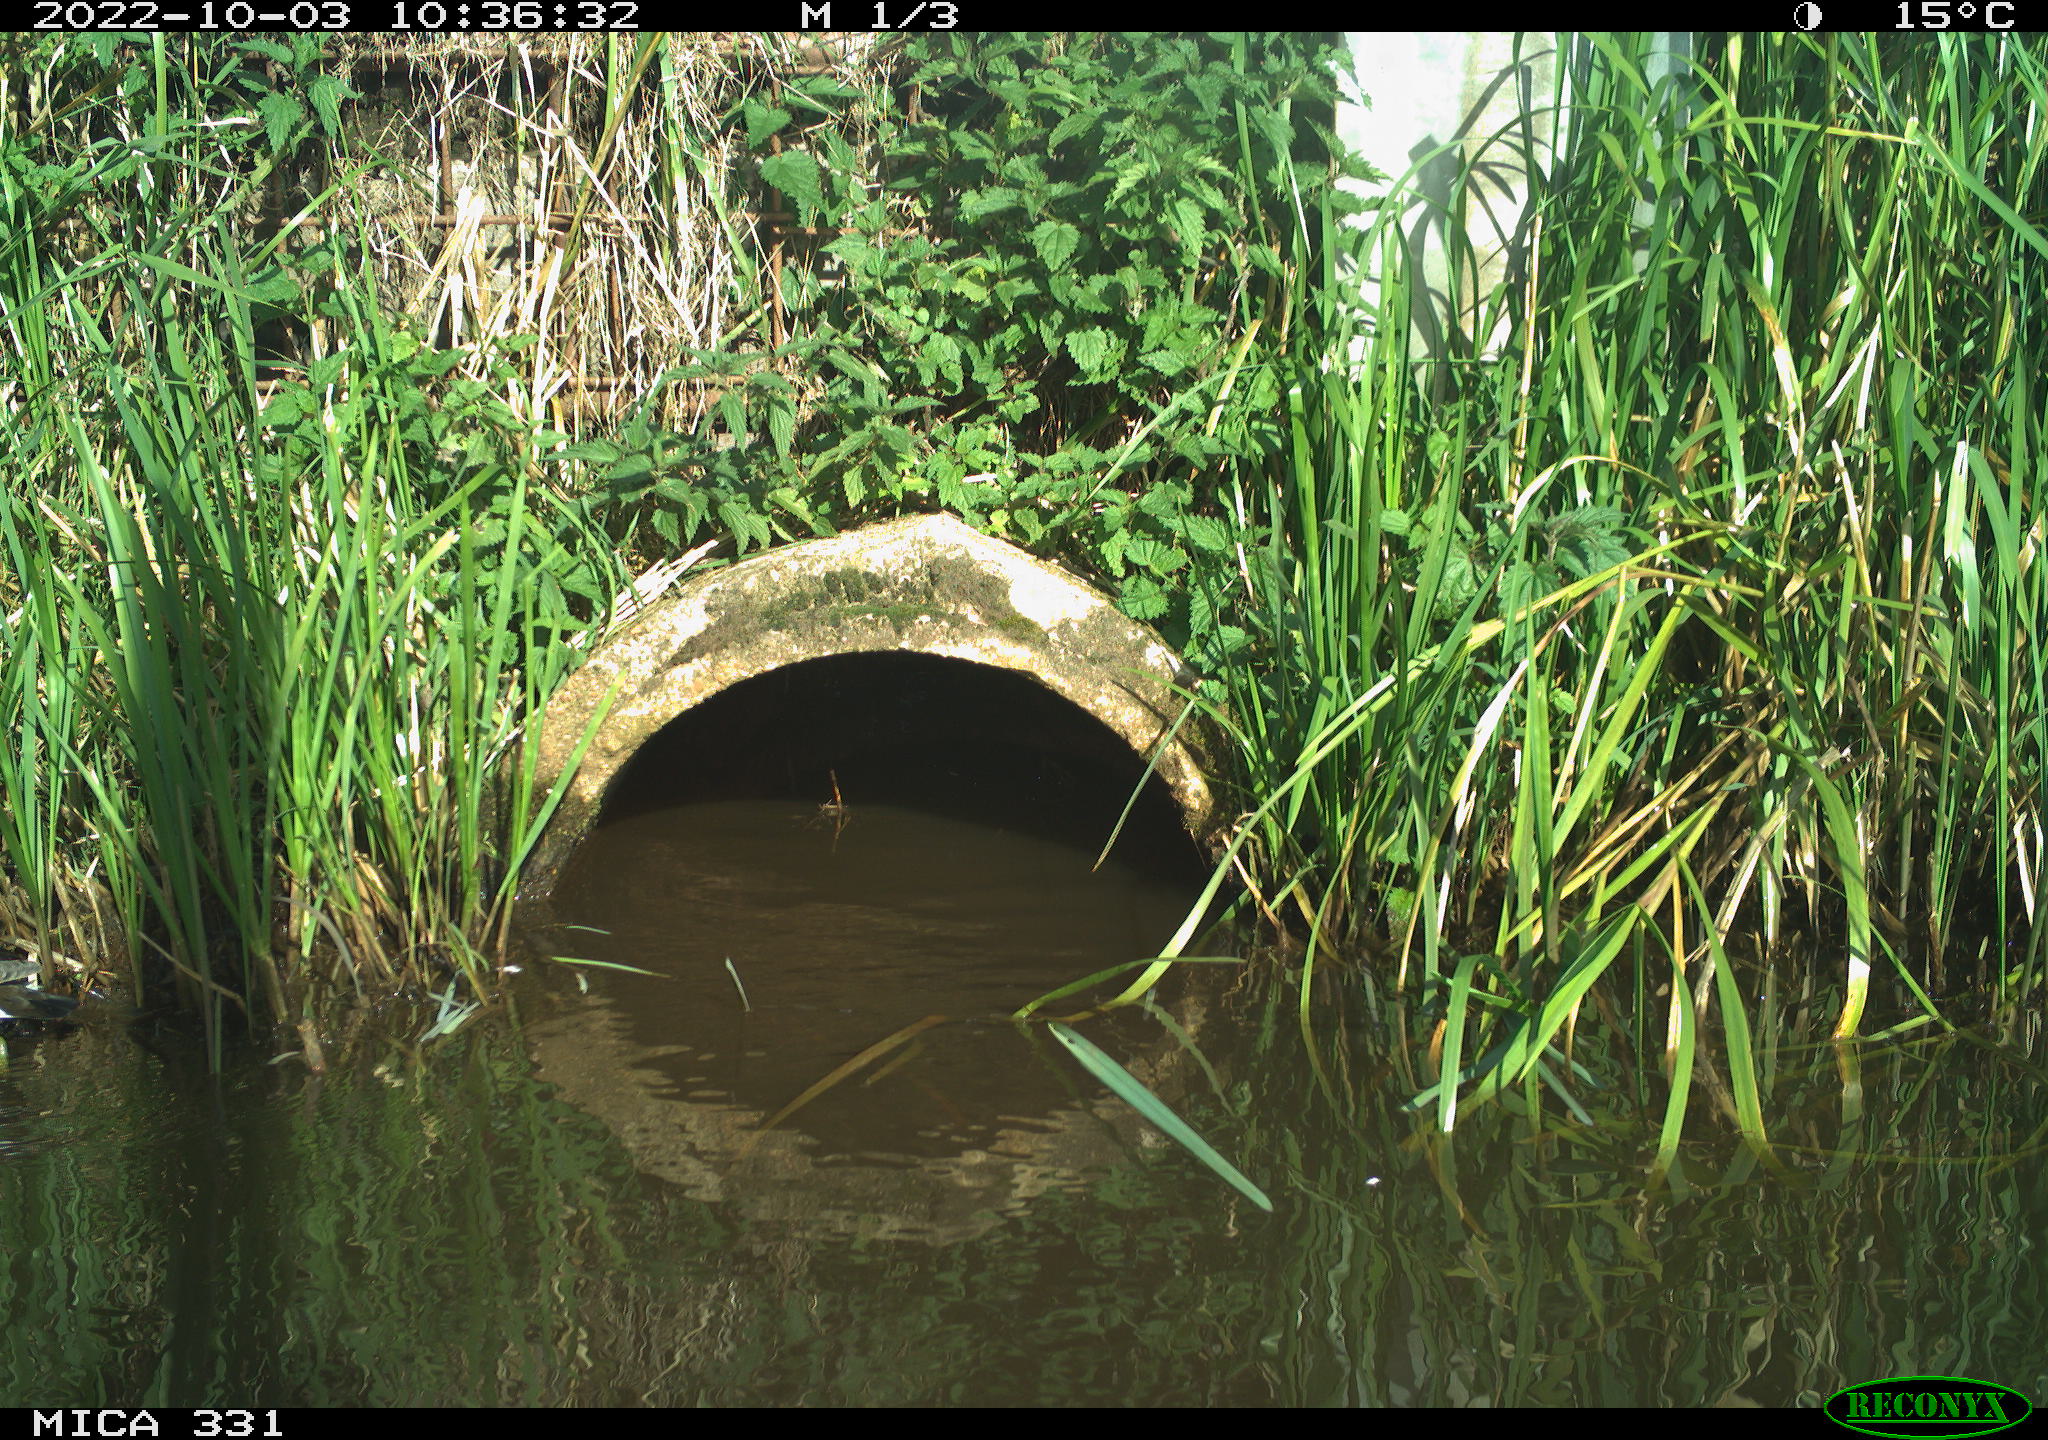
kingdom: Animalia
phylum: Chordata
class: Aves
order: Gruiformes
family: Rallidae
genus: Gallinula
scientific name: Gallinula chloropus
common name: Common moorhen
